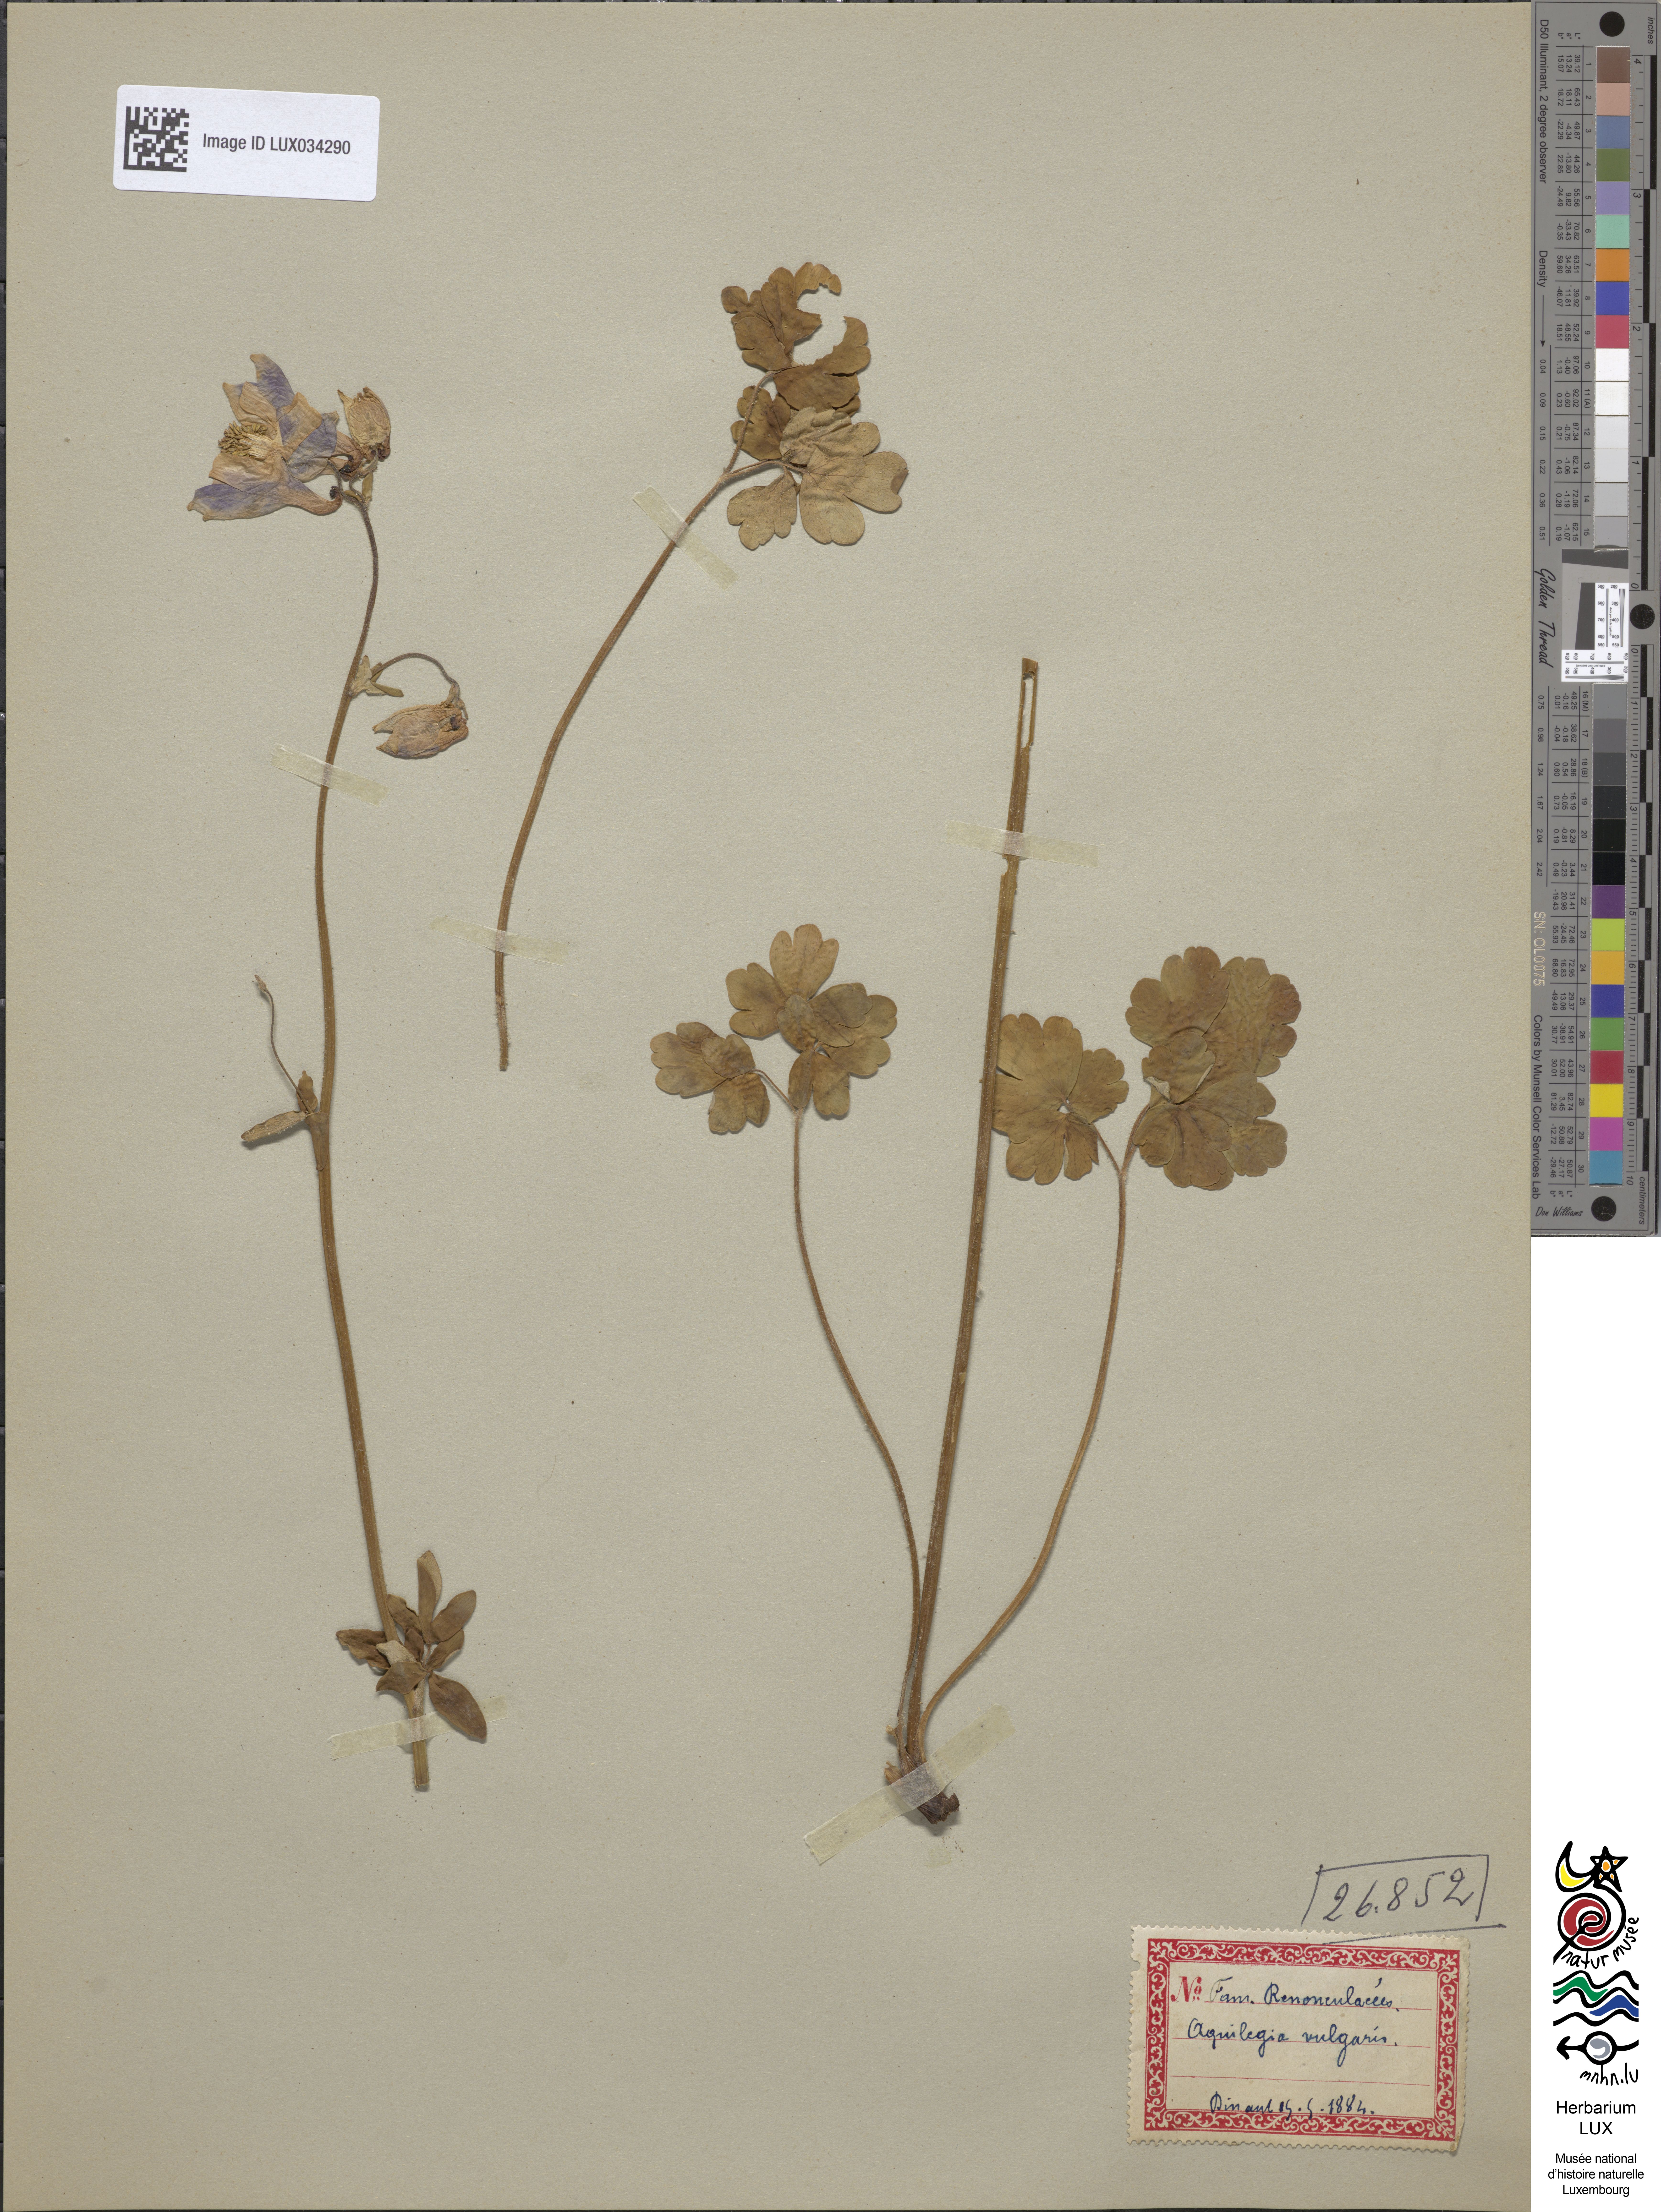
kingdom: Plantae
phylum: Tracheophyta
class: Magnoliopsida
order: Ranunculales
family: Ranunculaceae
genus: Aquilegia
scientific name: Aquilegia vulgaris
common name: Columbine
